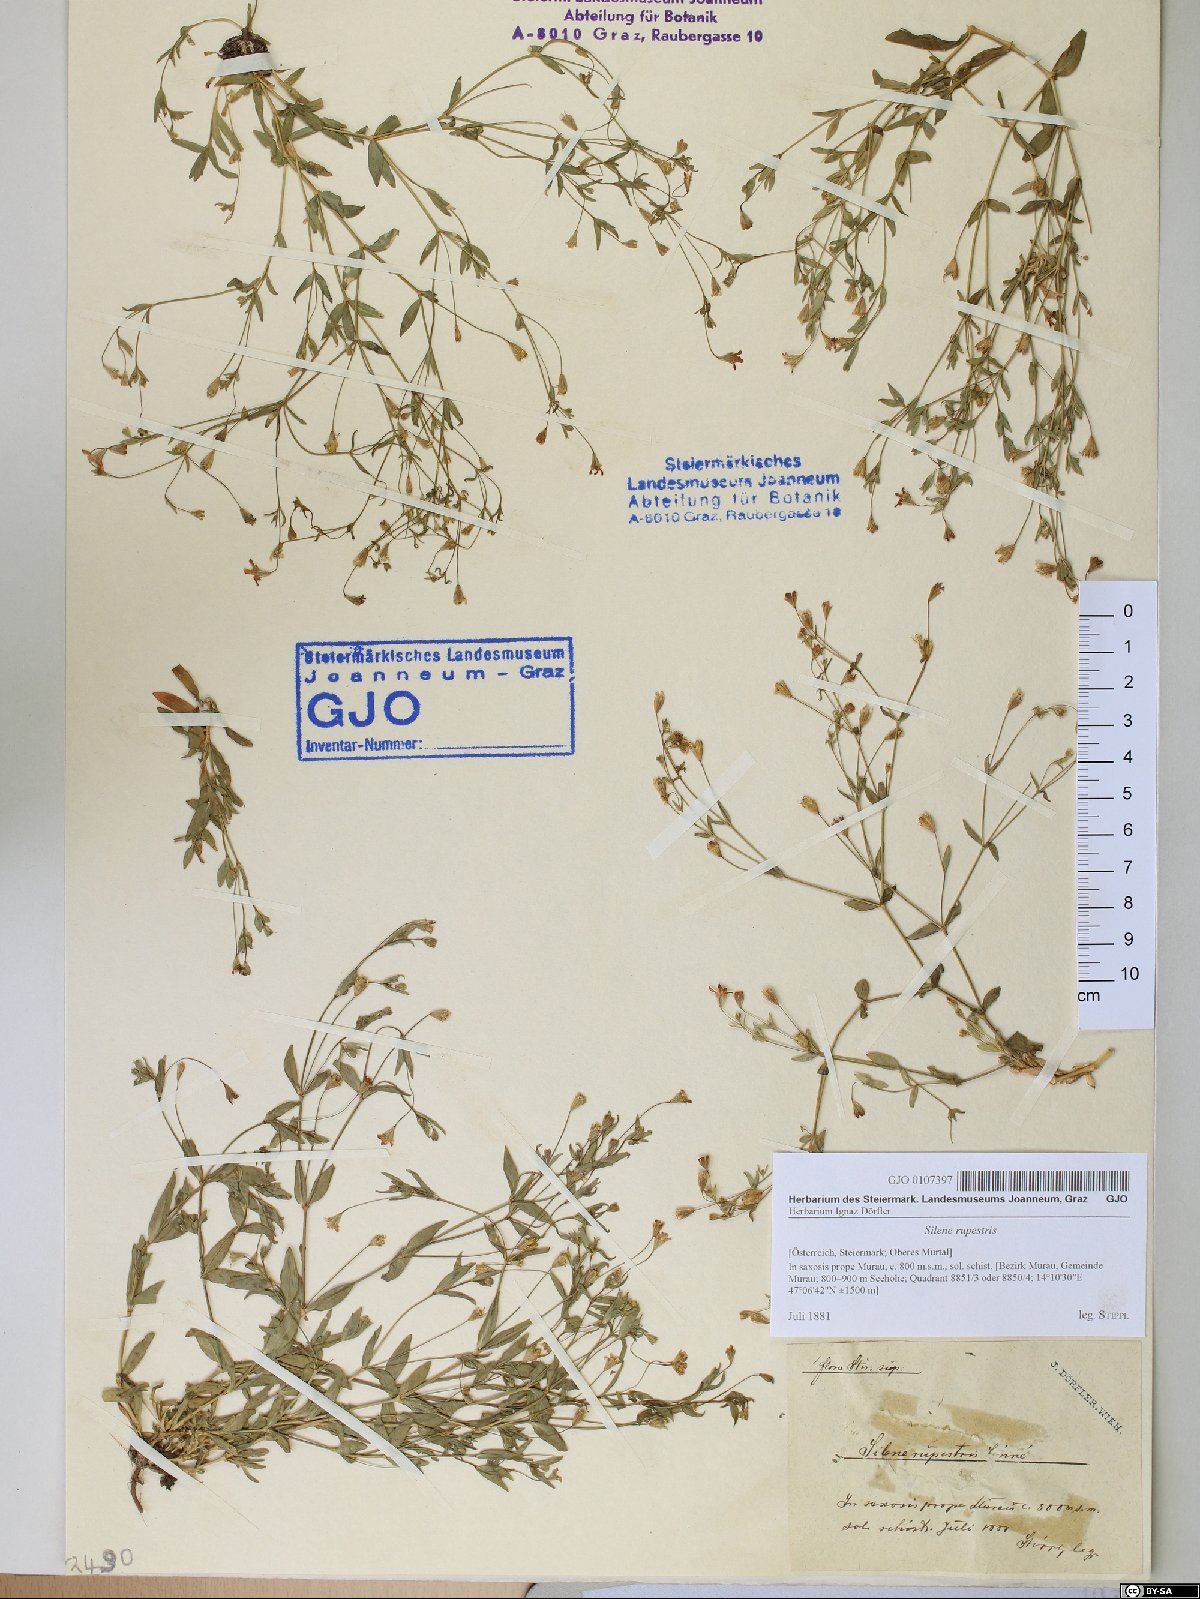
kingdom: Plantae
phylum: Tracheophyta
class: Magnoliopsida
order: Caryophyllales
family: Caryophyllaceae
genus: Atocion
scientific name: Atocion rupestre
